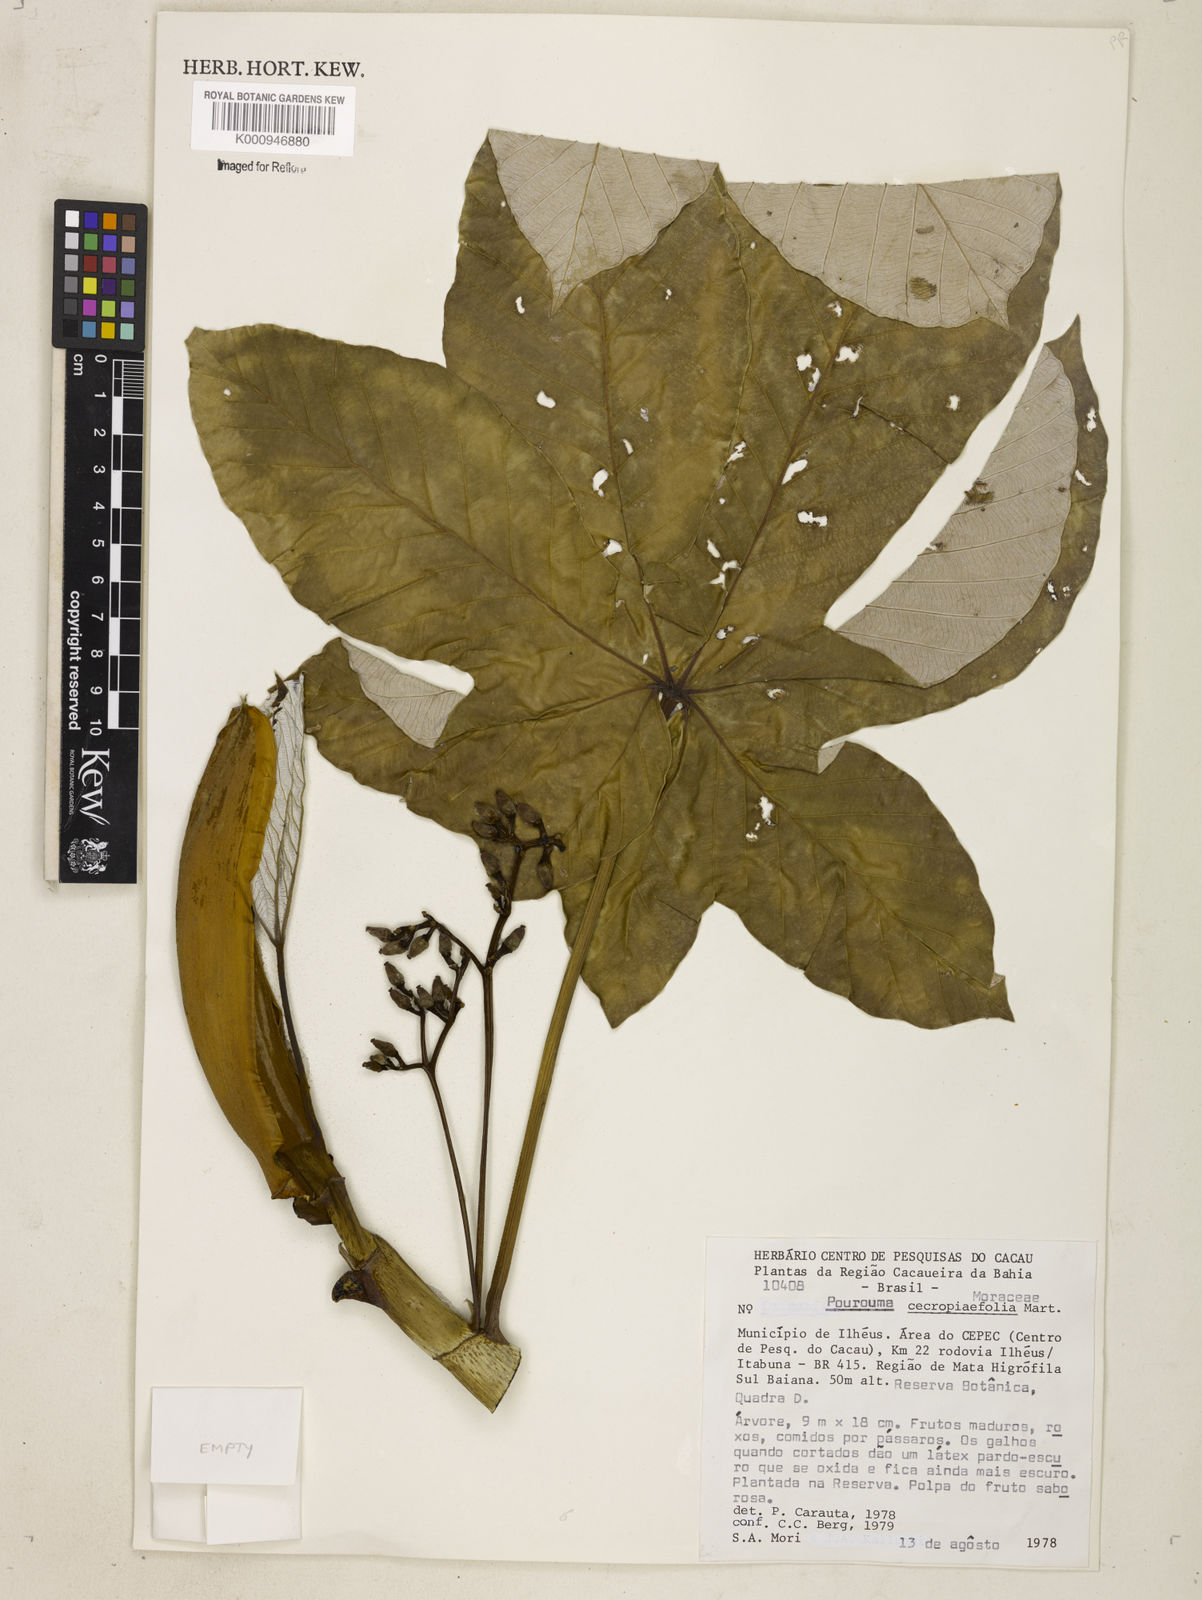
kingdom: Plantae
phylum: Tracheophyta
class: Magnoliopsida
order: Rosales
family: Urticaceae
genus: Pourouma
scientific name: Pourouma cecropiifolia
